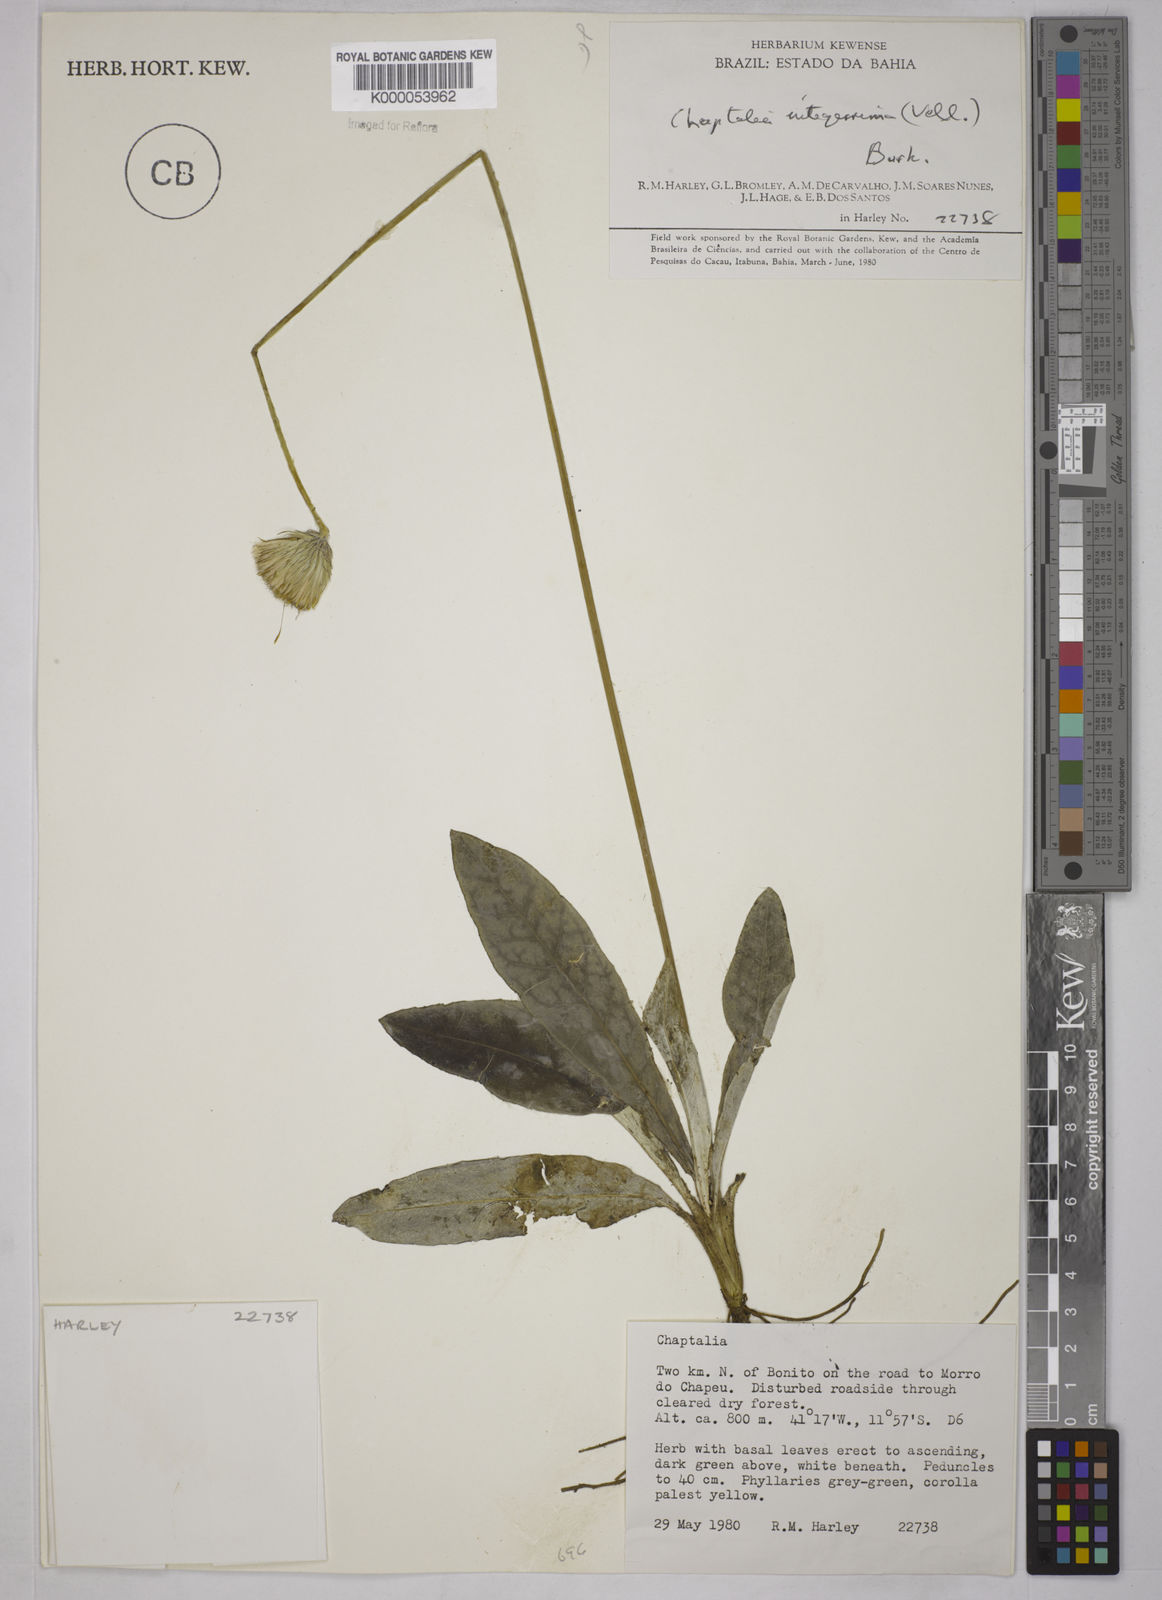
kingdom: Plantae
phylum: Tracheophyta
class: Magnoliopsida
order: Asterales
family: Asteraceae
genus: Chaptalia
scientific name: Chaptalia integerrima
